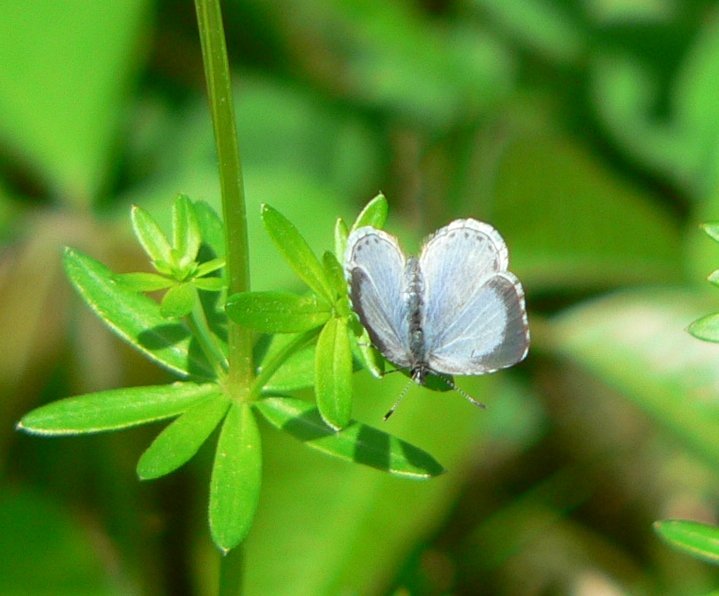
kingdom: Animalia
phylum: Arthropoda
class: Insecta
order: Lepidoptera
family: Lycaenidae
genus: Celastrina
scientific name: Celastrina lucia
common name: Northern Spring Azure
